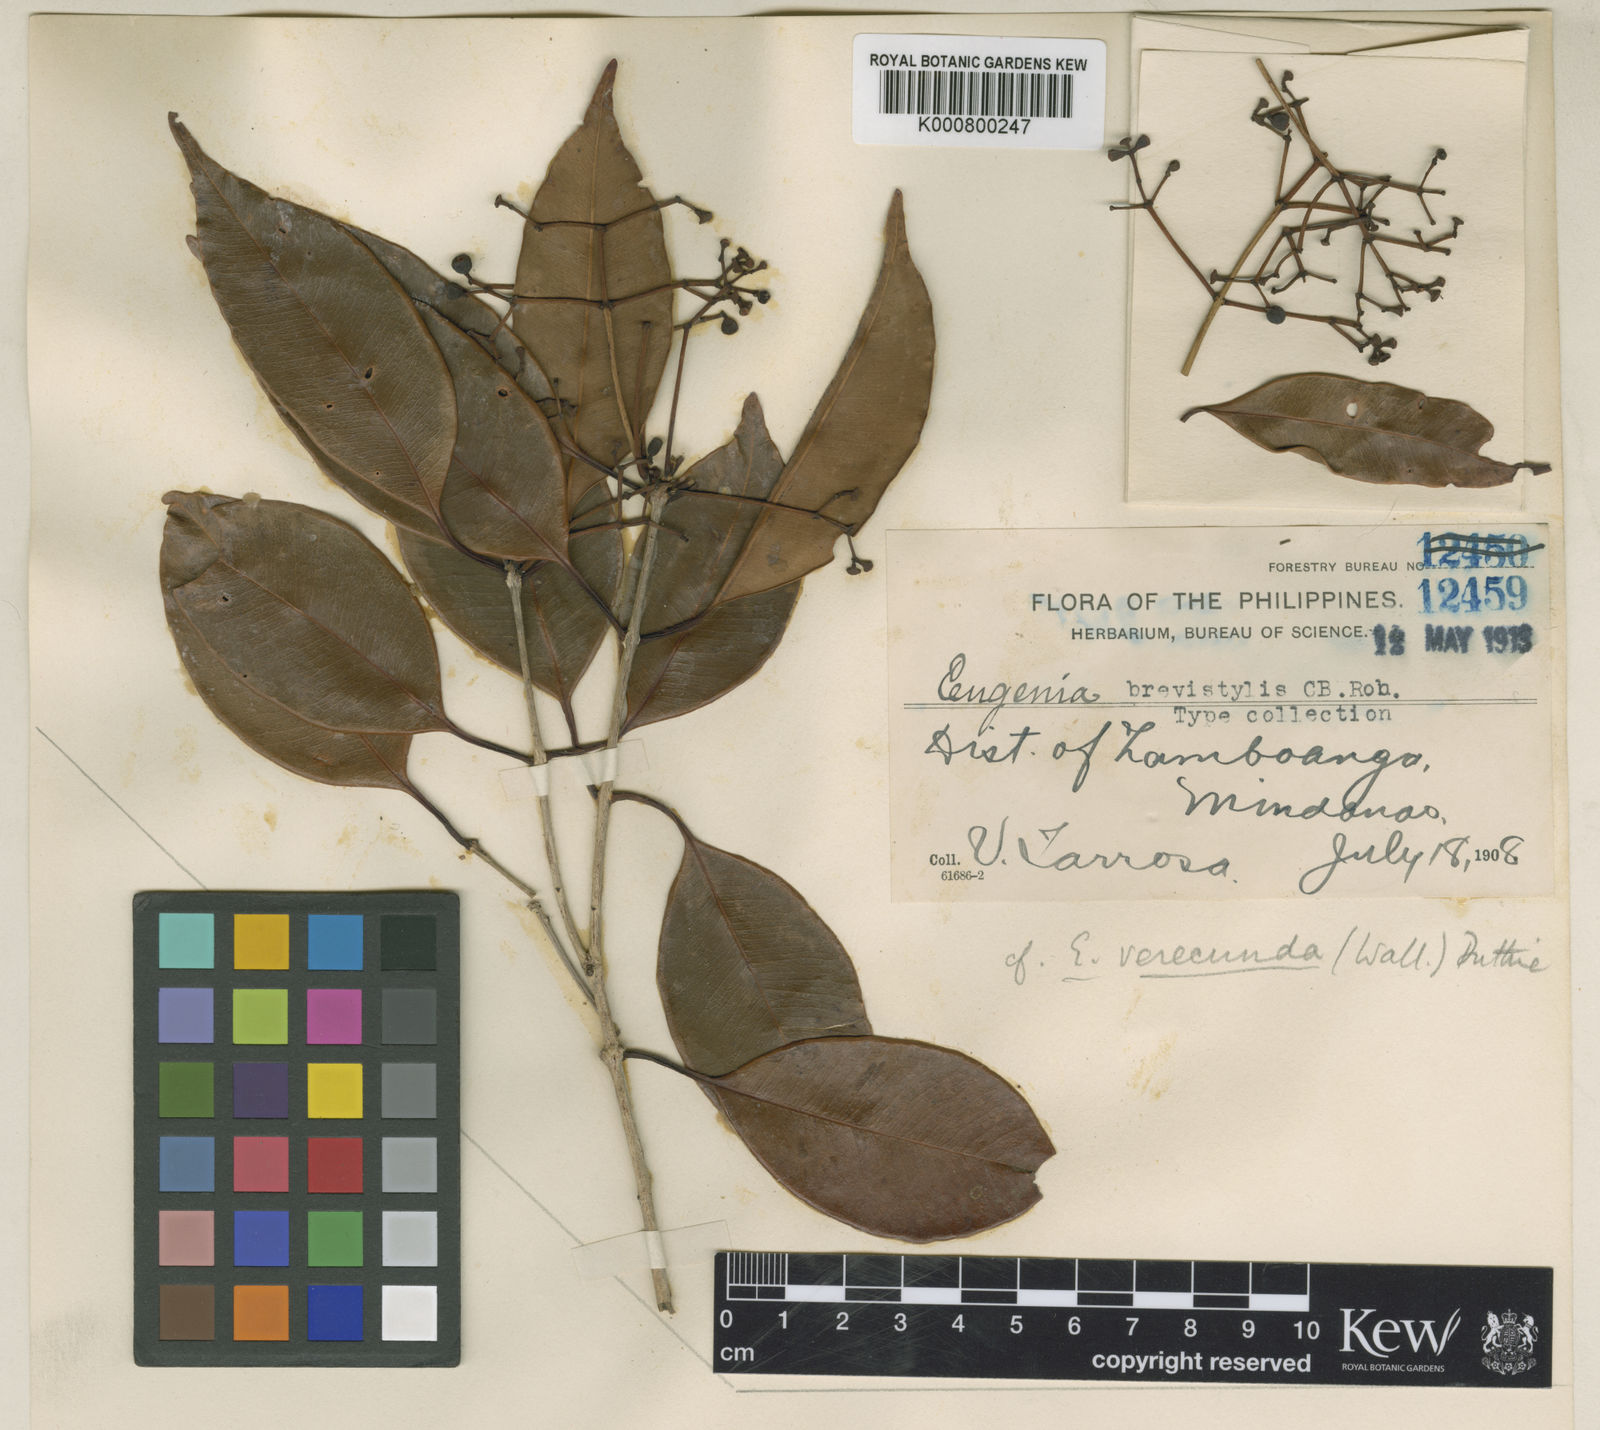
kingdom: Plantae
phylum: Tracheophyta
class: Magnoliopsida
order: Myrtales
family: Myrtaceae
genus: Syzygium
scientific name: Syzygium leucoxylon
